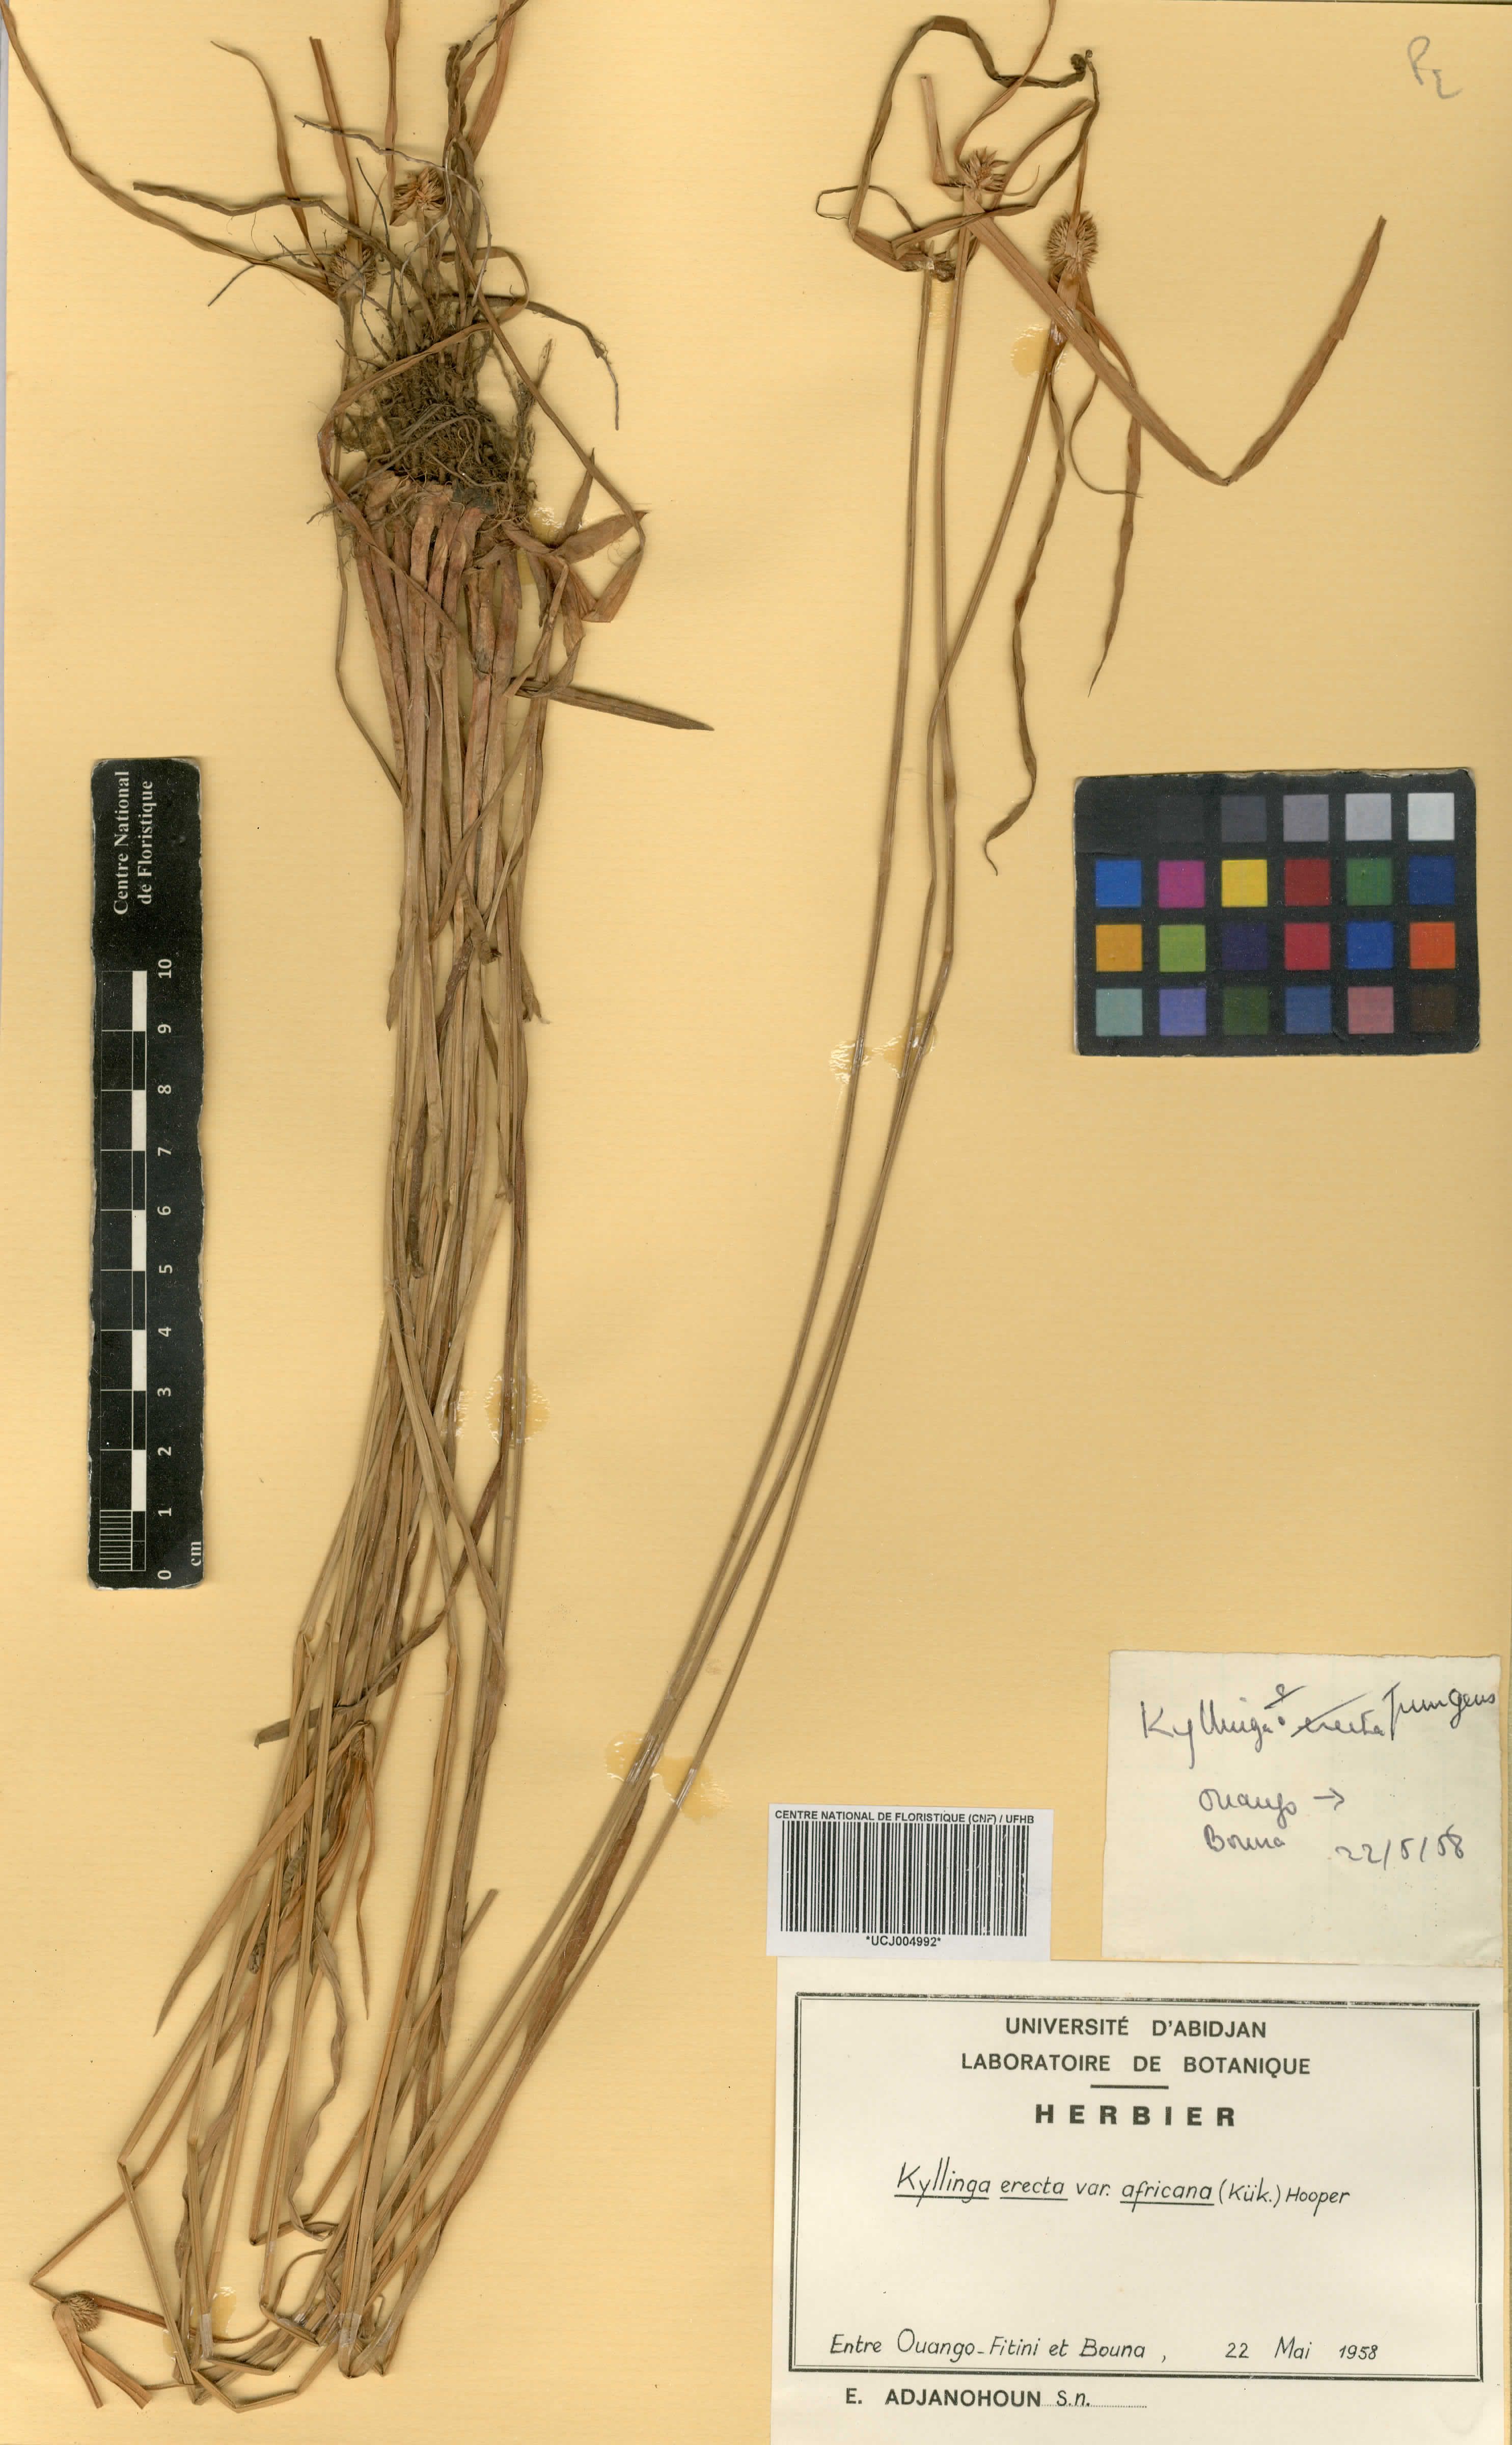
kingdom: Plantae
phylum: Tracheophyta
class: Liliopsida
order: Poales
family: Cyperaceae
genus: Cyperus
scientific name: Cyperus obtusatus
